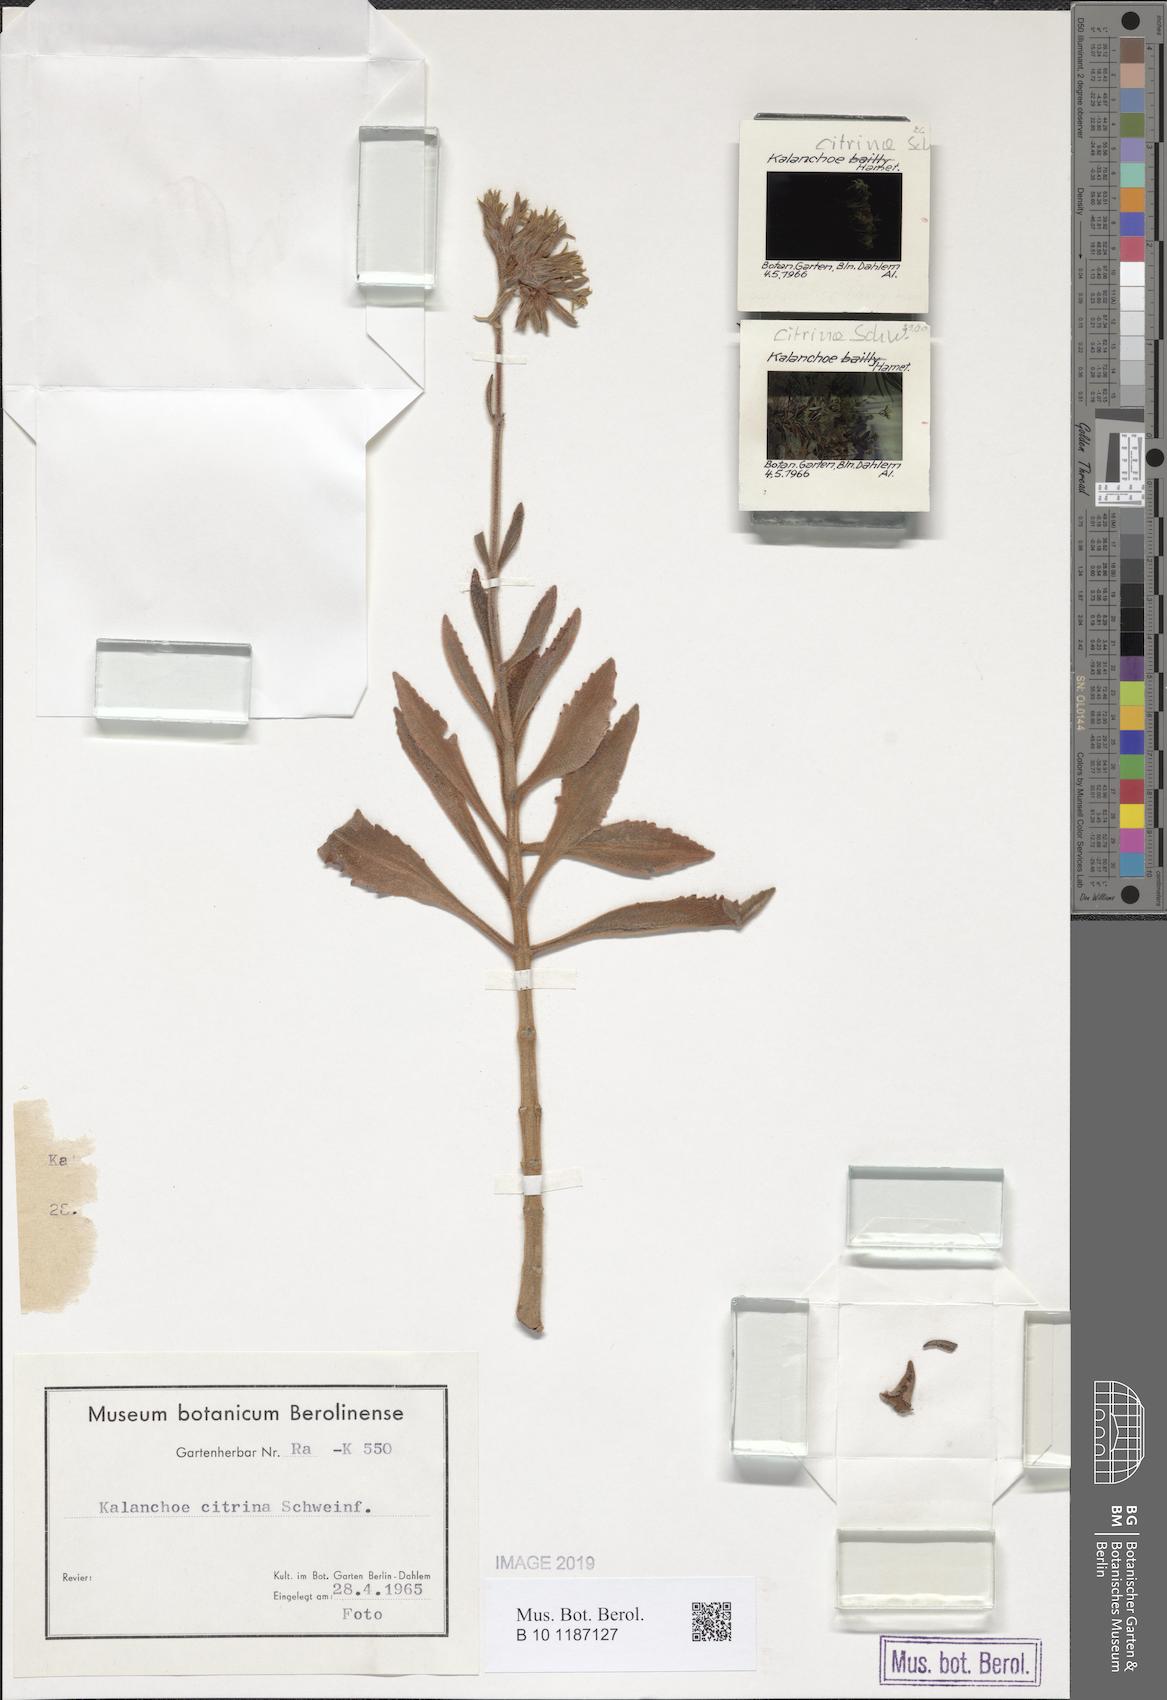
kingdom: Plantae
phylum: Tracheophyta
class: Magnoliopsida
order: Saxifragales
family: Crassulaceae
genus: Kalanchoe
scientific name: Kalanchoe citrina
